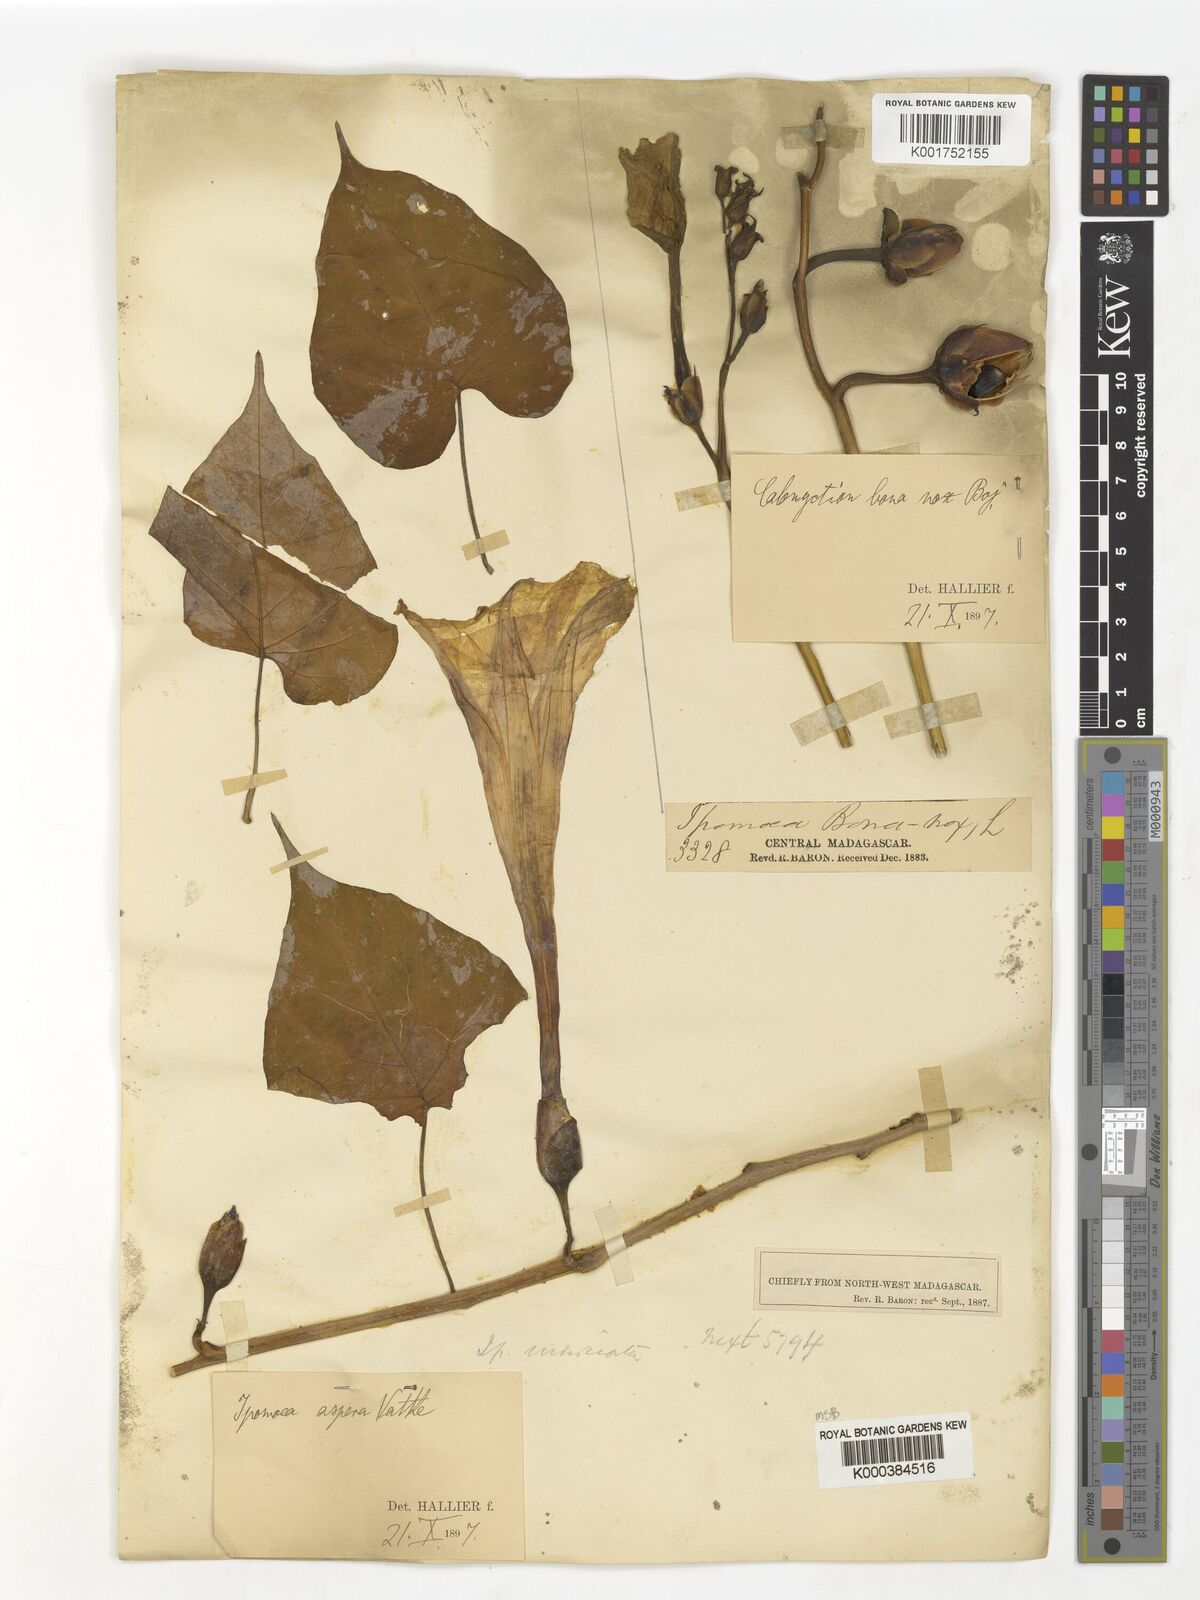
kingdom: Plantae
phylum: Tracheophyta
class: Magnoliopsida
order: Solanales
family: Convolvulaceae
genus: Ipomoea
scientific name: Ipomoea aspera
